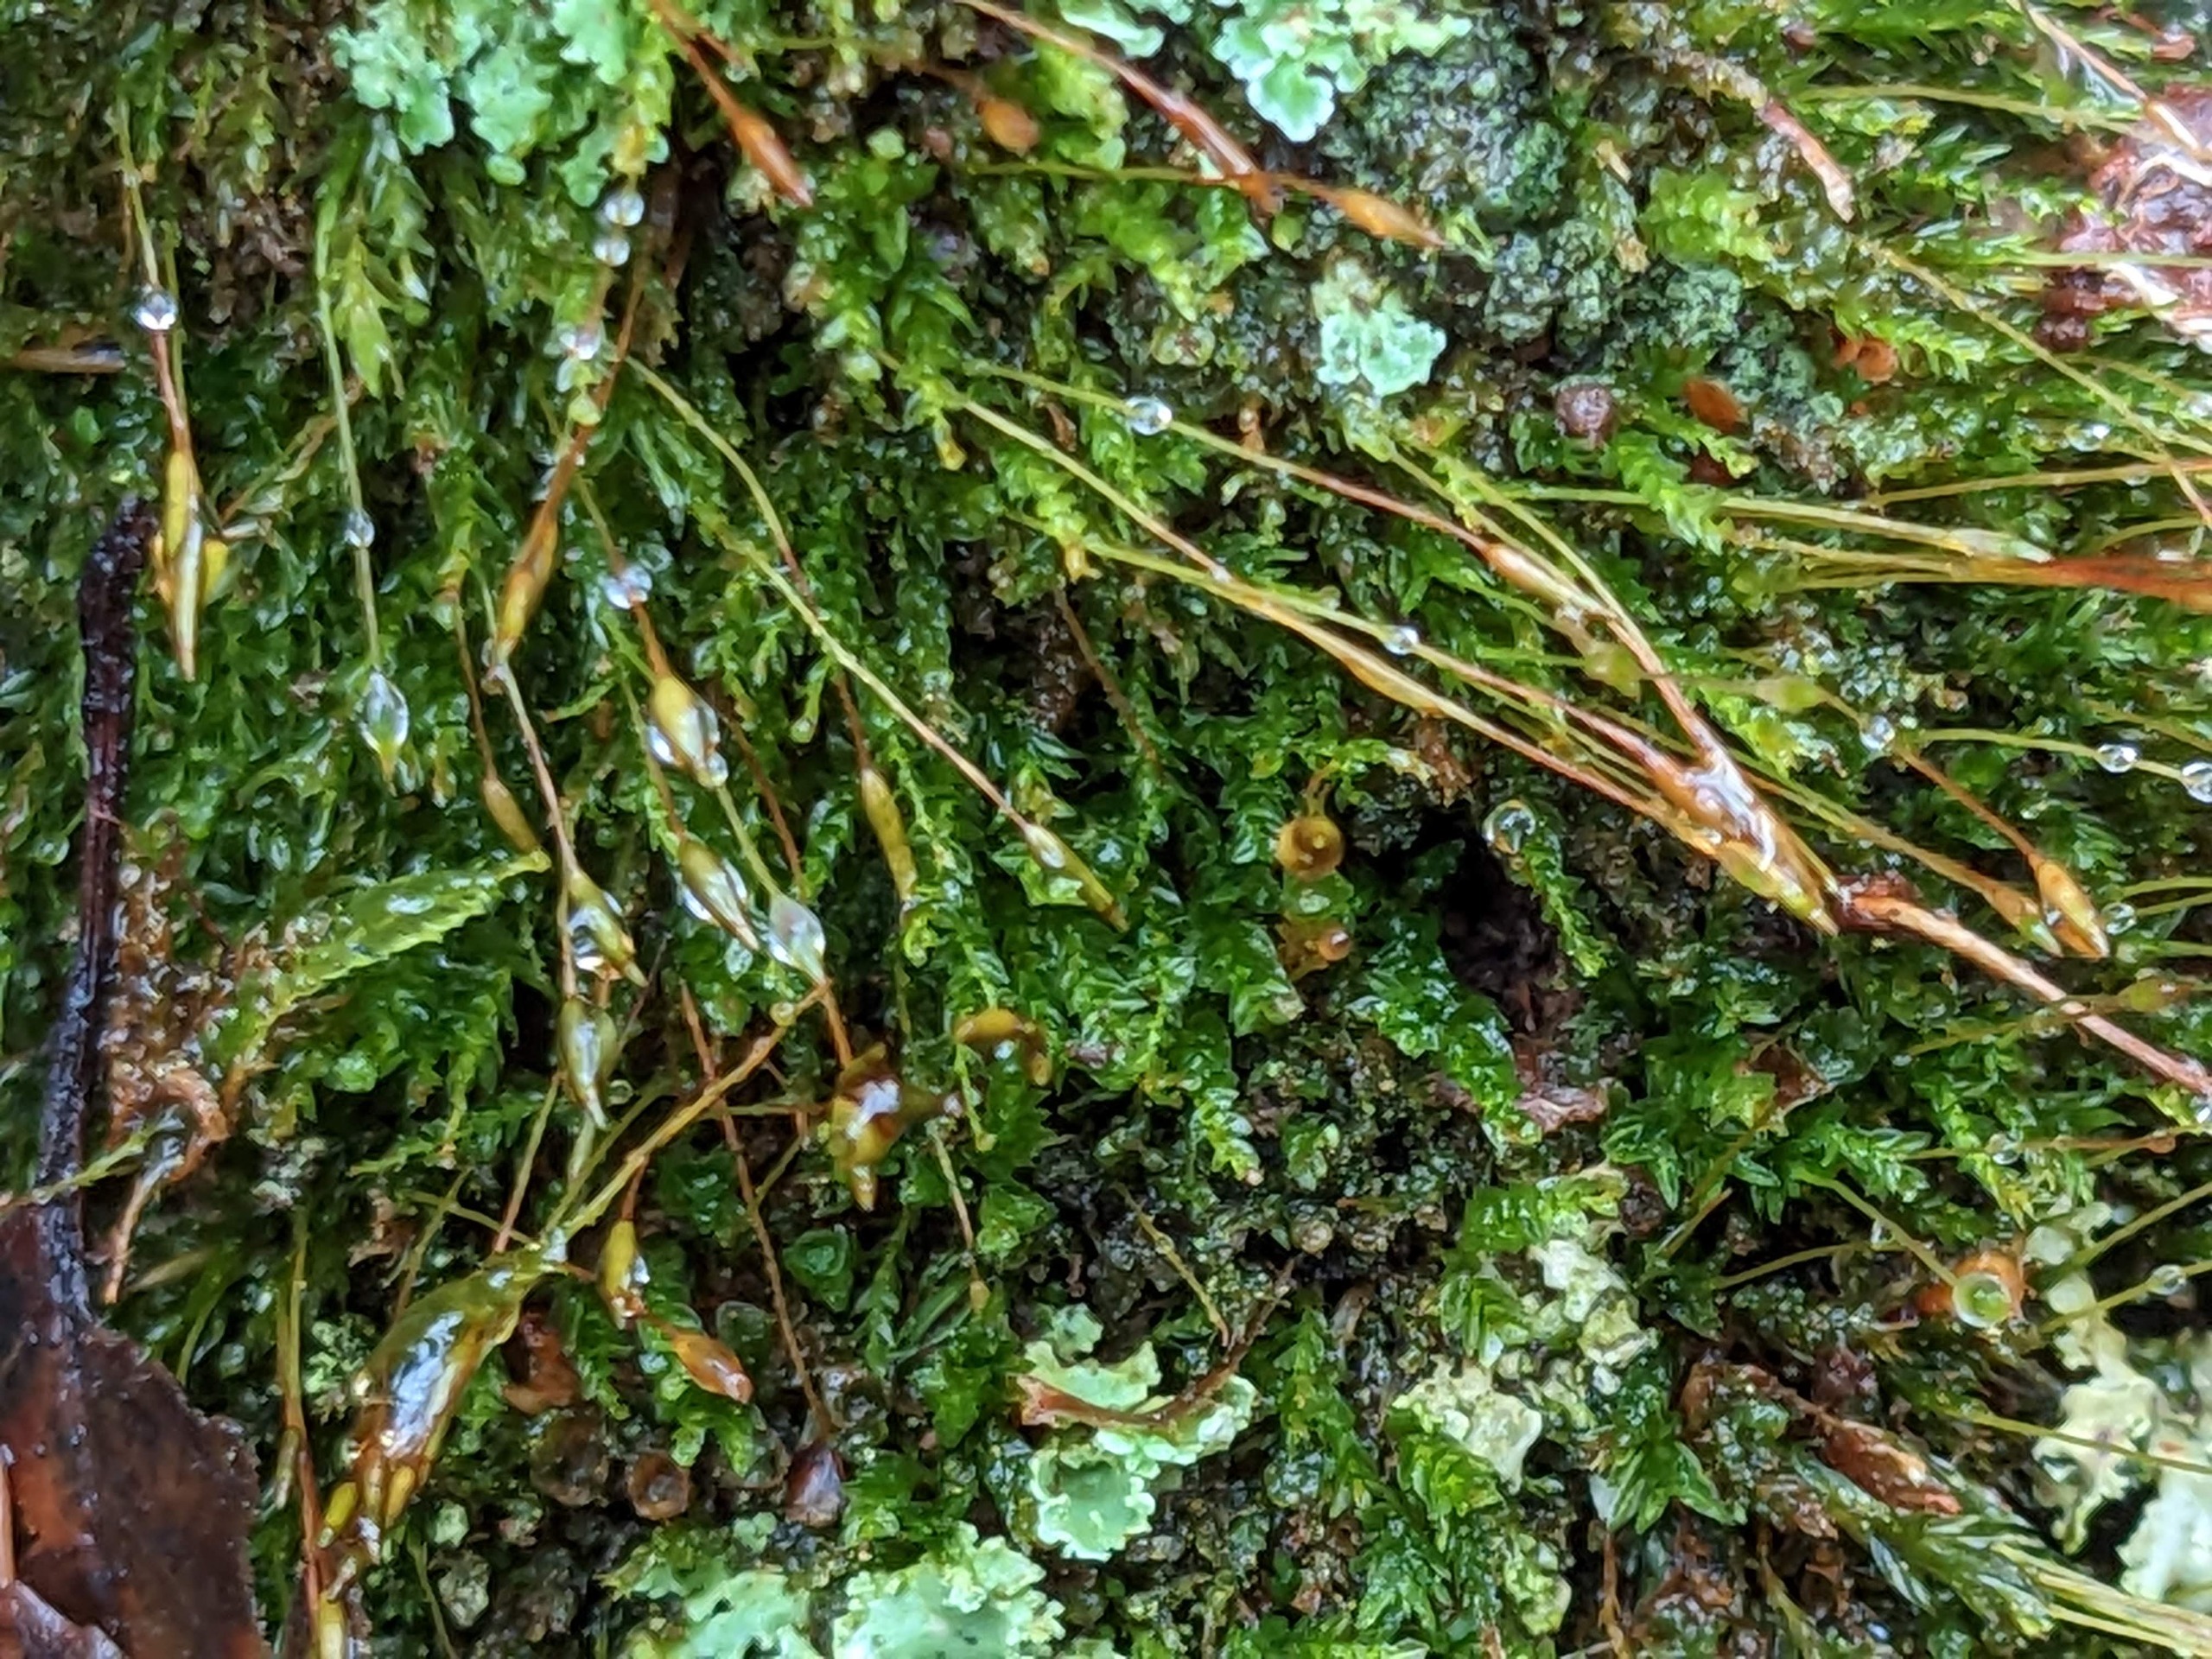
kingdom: Plantae
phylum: Bryophyta
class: Polytrichopsida
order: Tetraphidales
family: Tetraphidaceae
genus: Tetraphis
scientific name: Tetraphis pellucida
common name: Almindelig firtand
